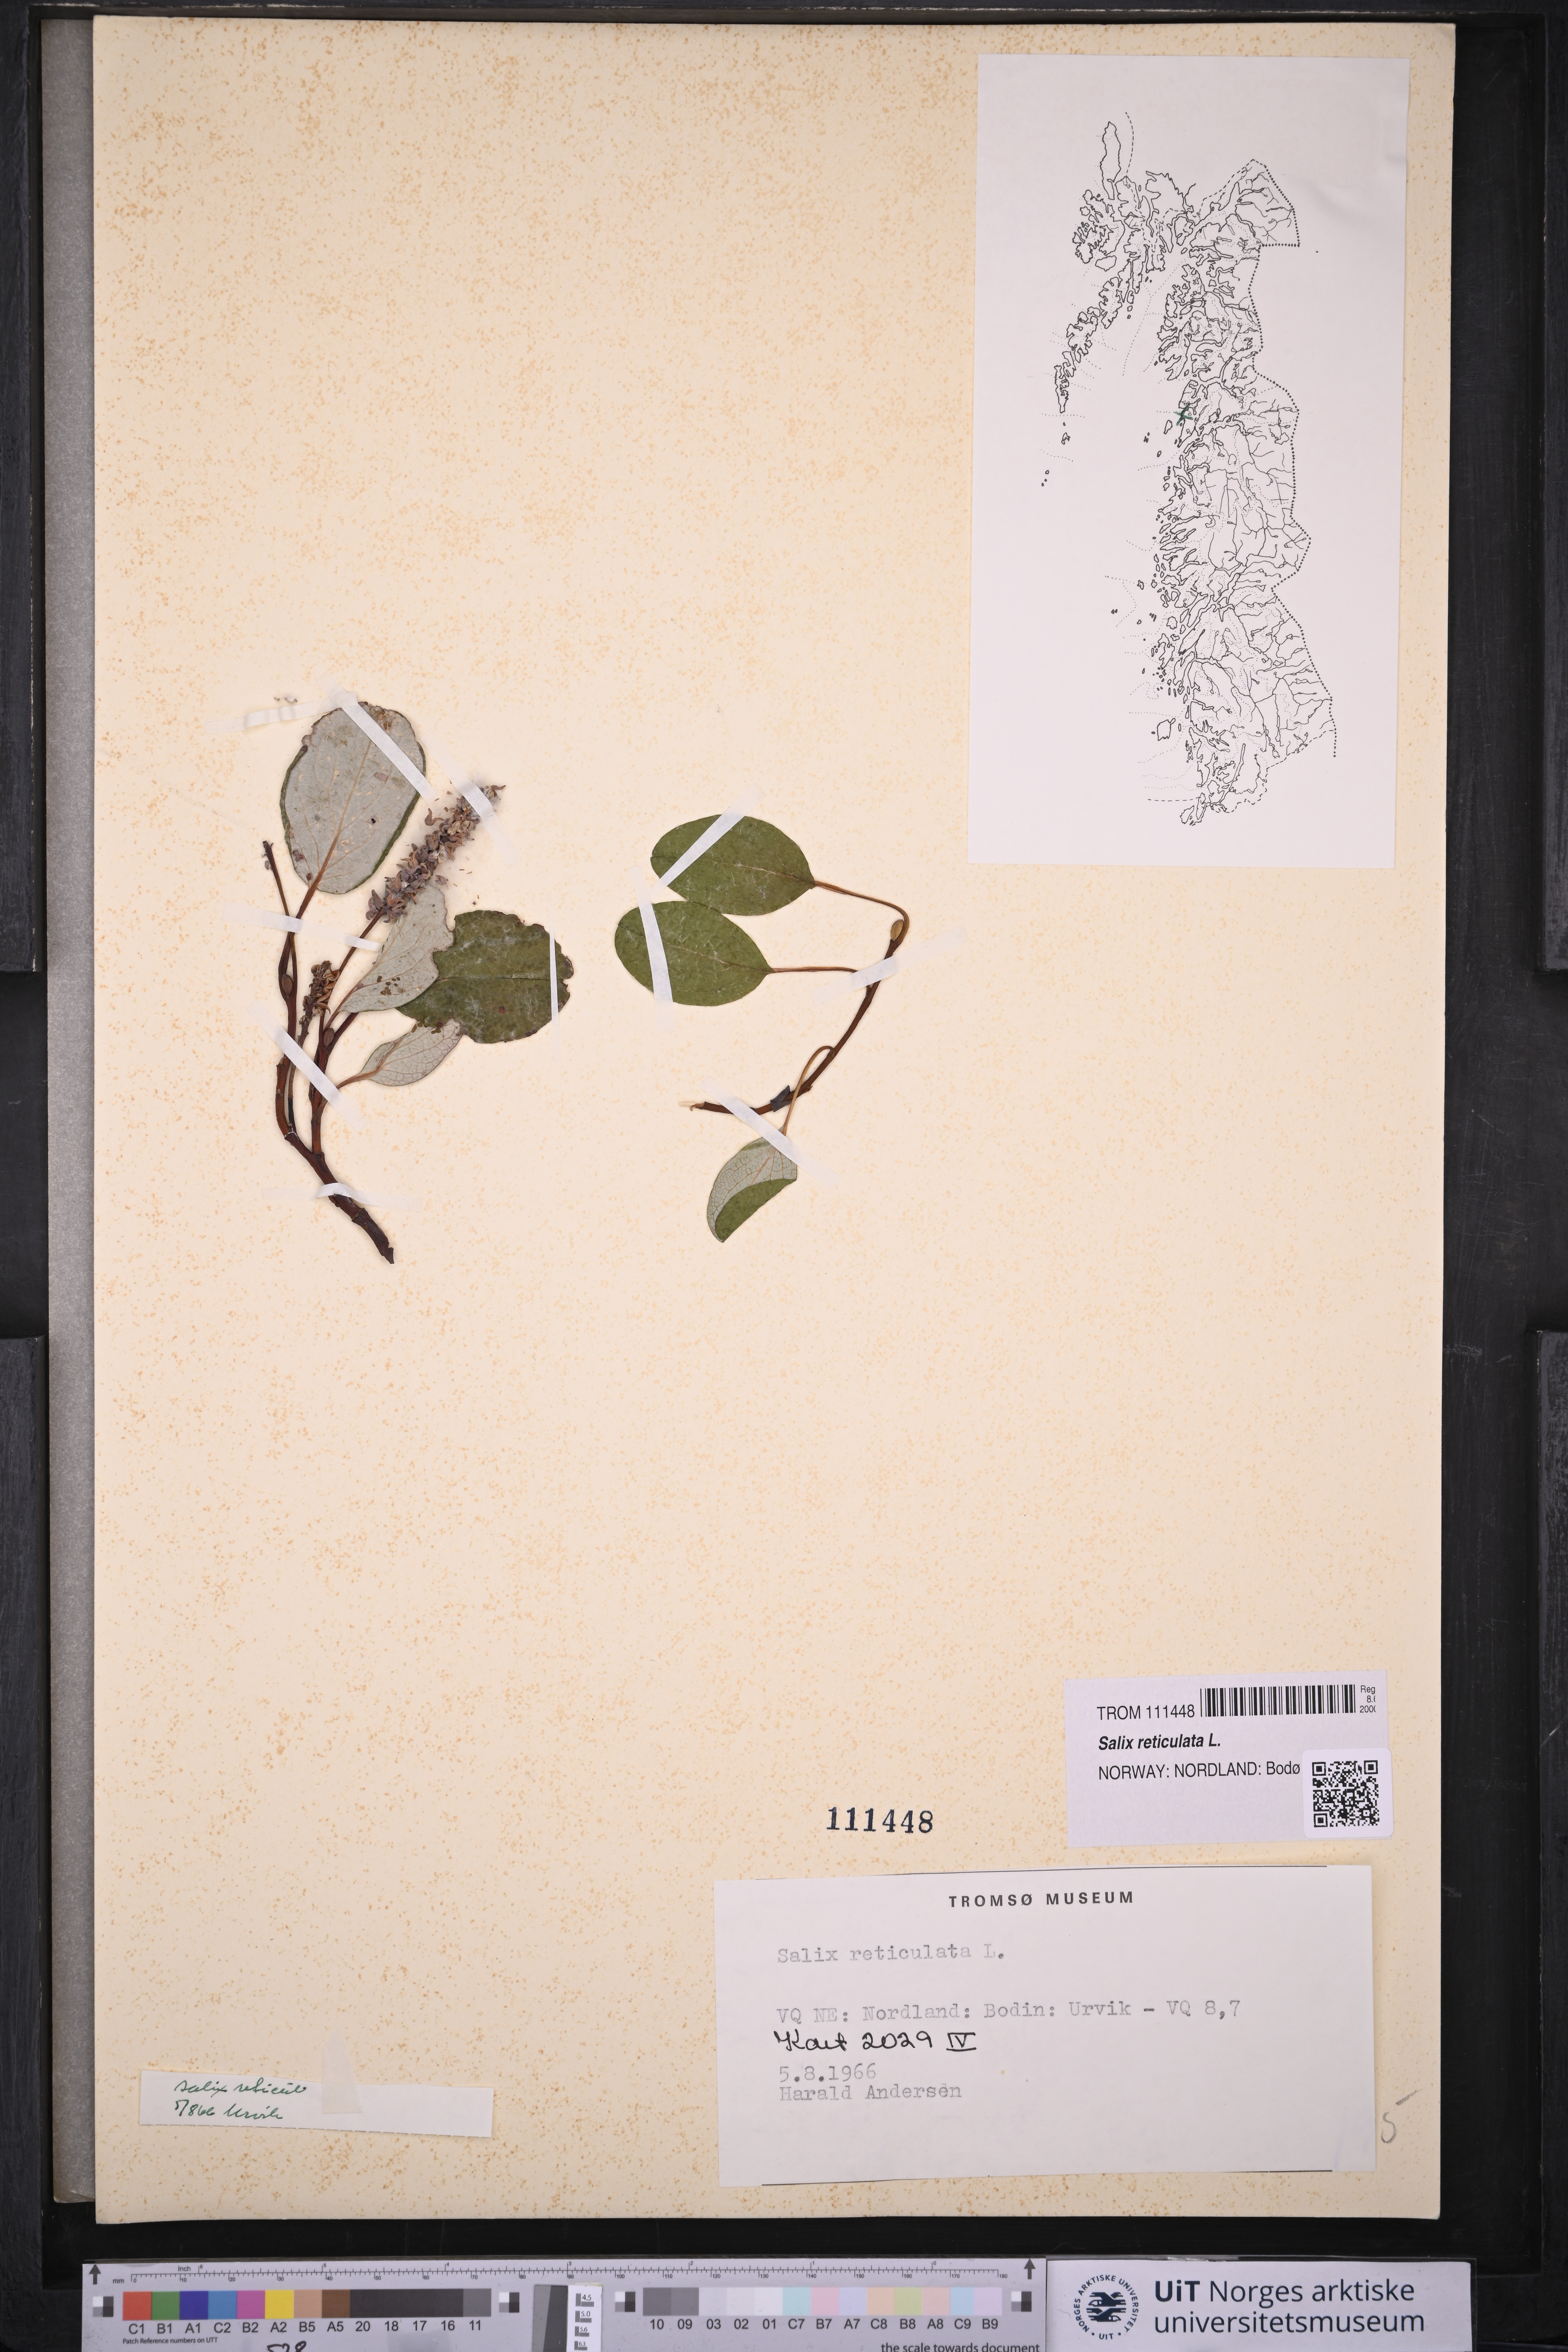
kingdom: Plantae
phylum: Tracheophyta
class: Magnoliopsida
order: Malpighiales
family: Salicaceae
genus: Salix
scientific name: Salix reticulata
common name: Net-leaved willow
